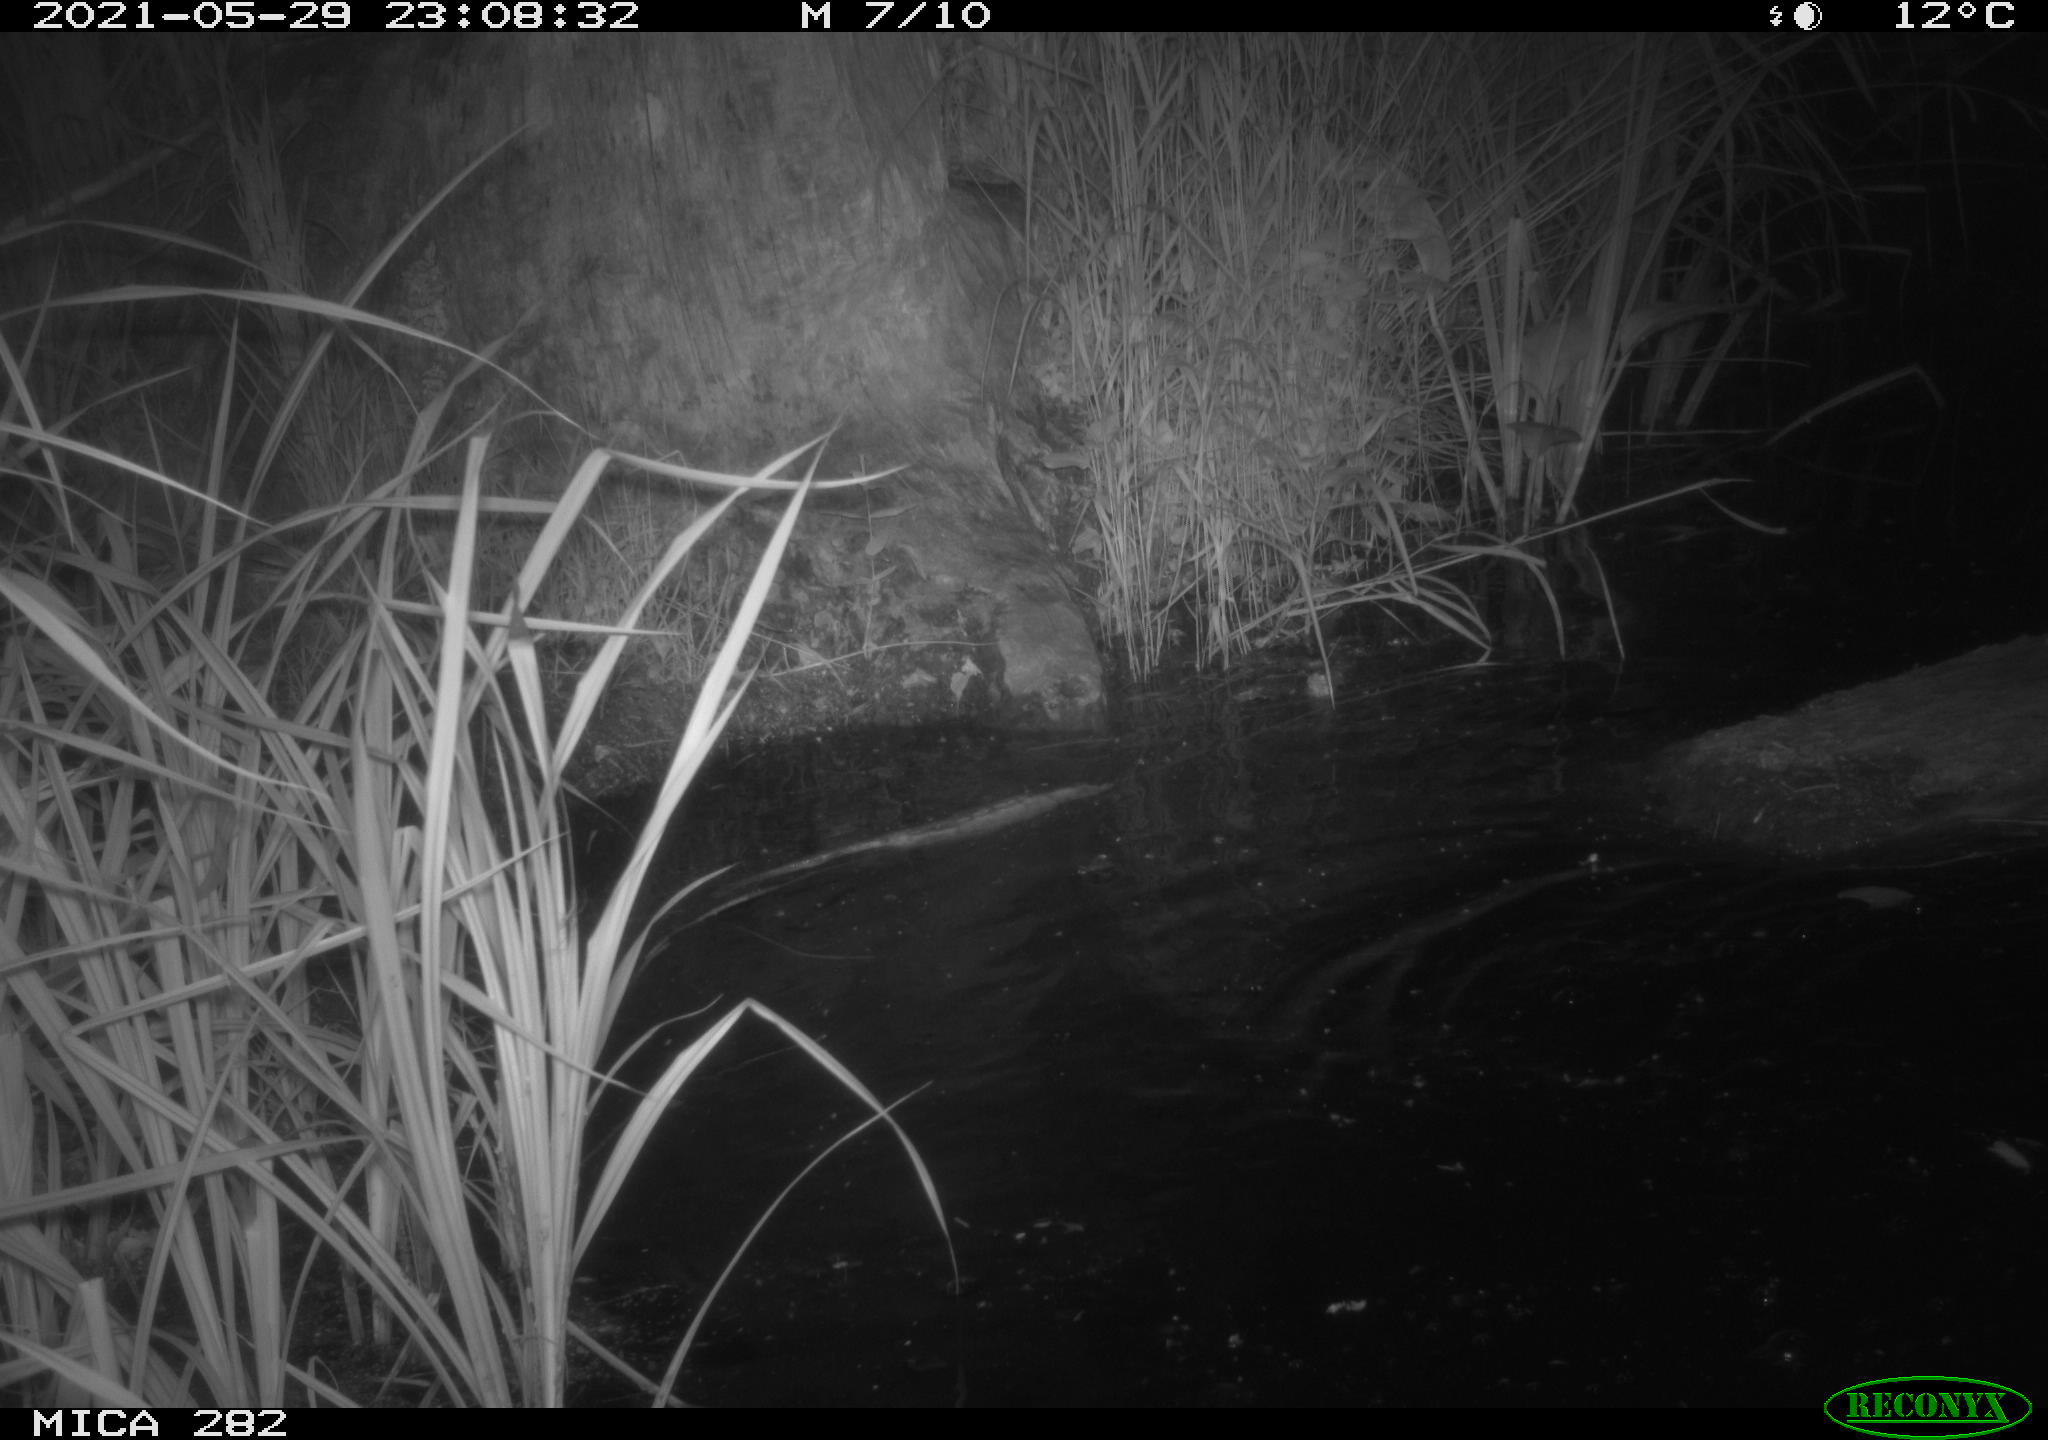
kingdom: Animalia
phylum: Chordata
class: Mammalia
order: Rodentia
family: Castoridae
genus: Castor
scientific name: Castor fiber
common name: Eurasian beaver
